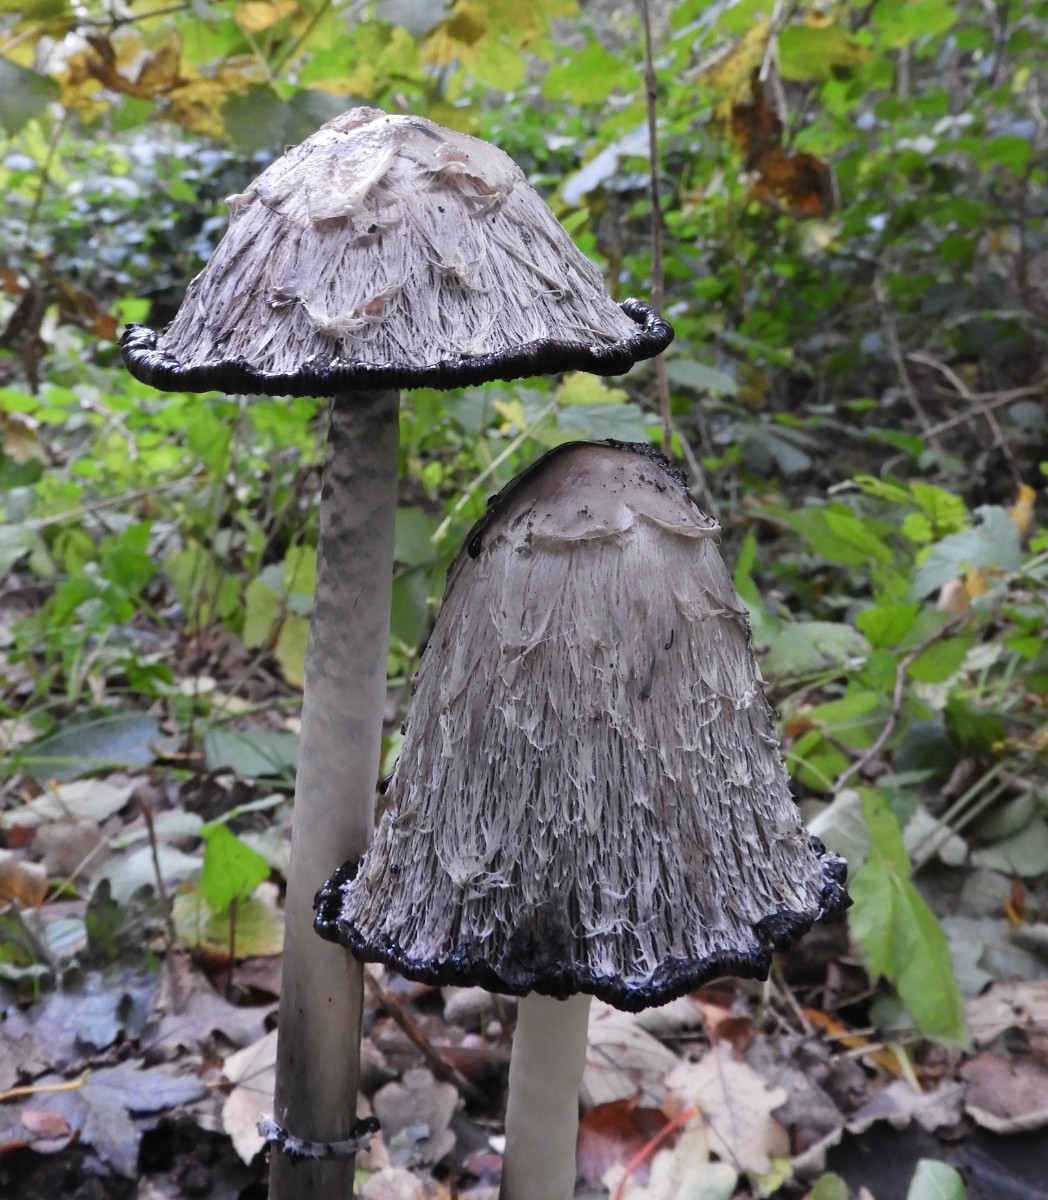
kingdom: Fungi
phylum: Basidiomycota
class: Agaricomycetes
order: Agaricales
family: Agaricaceae
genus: Coprinus
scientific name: Coprinus comatus
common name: stor parykhat
